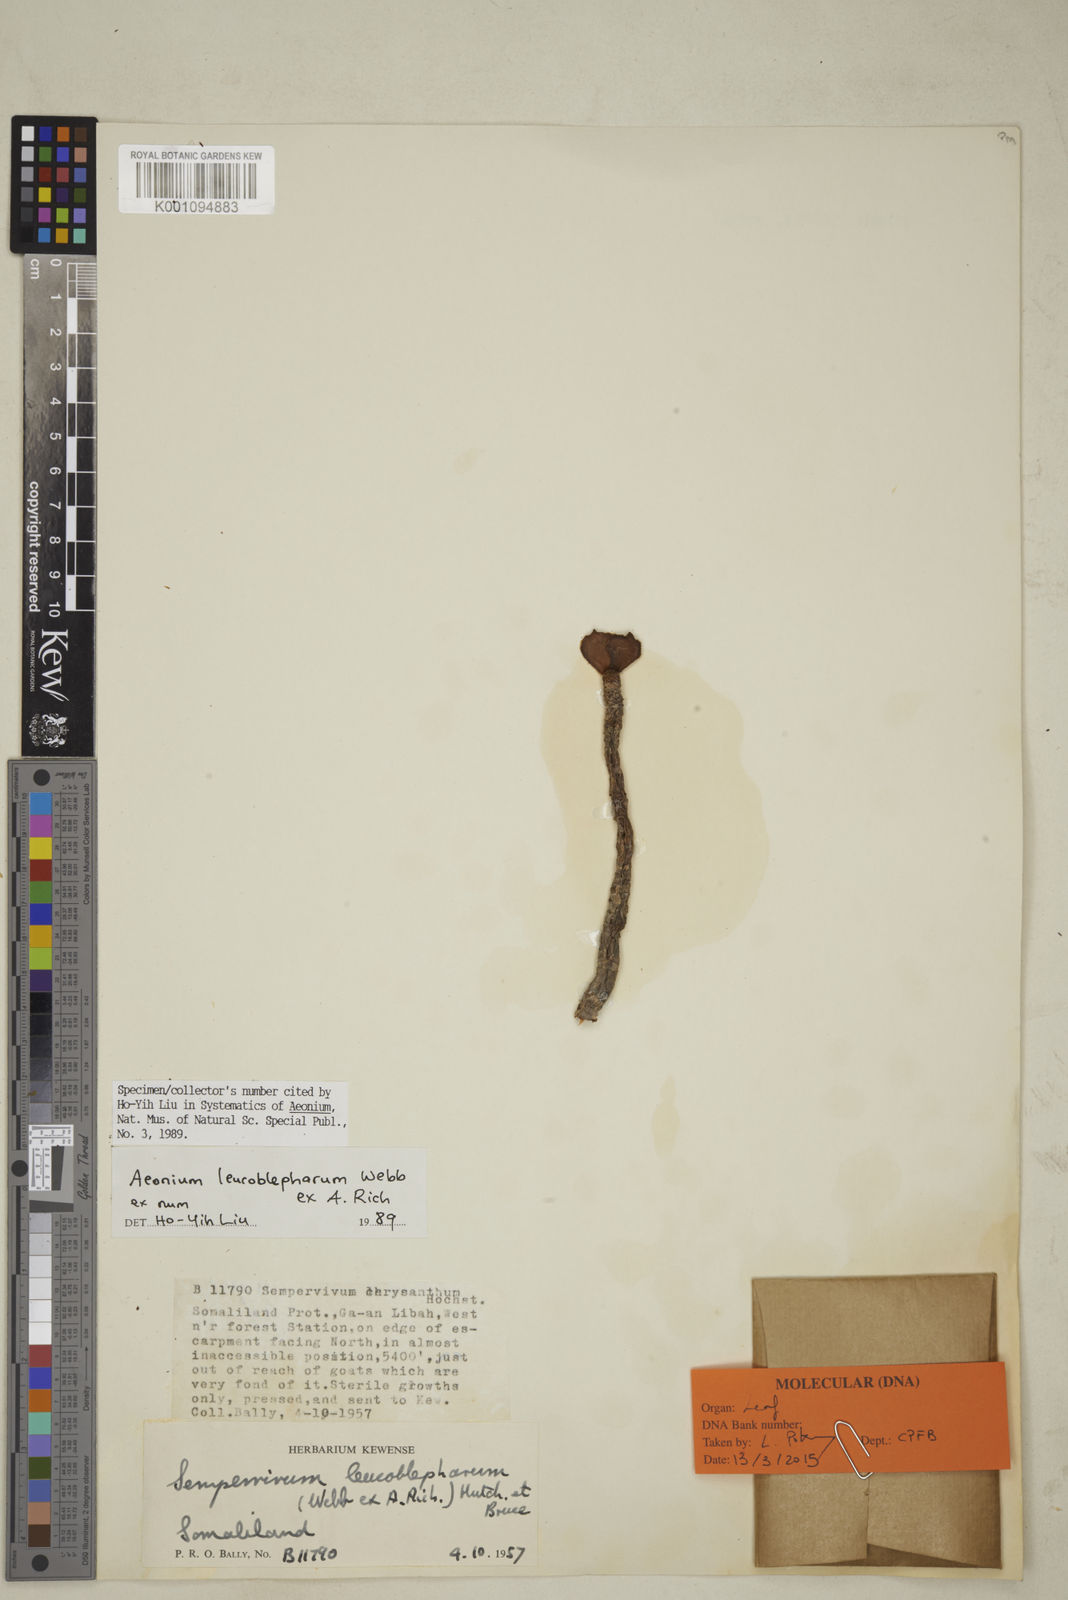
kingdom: Plantae
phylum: Tracheophyta
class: Magnoliopsida
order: Saxifragales
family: Crassulaceae
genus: Aeonium
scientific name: Aeonium leucoblepharum
